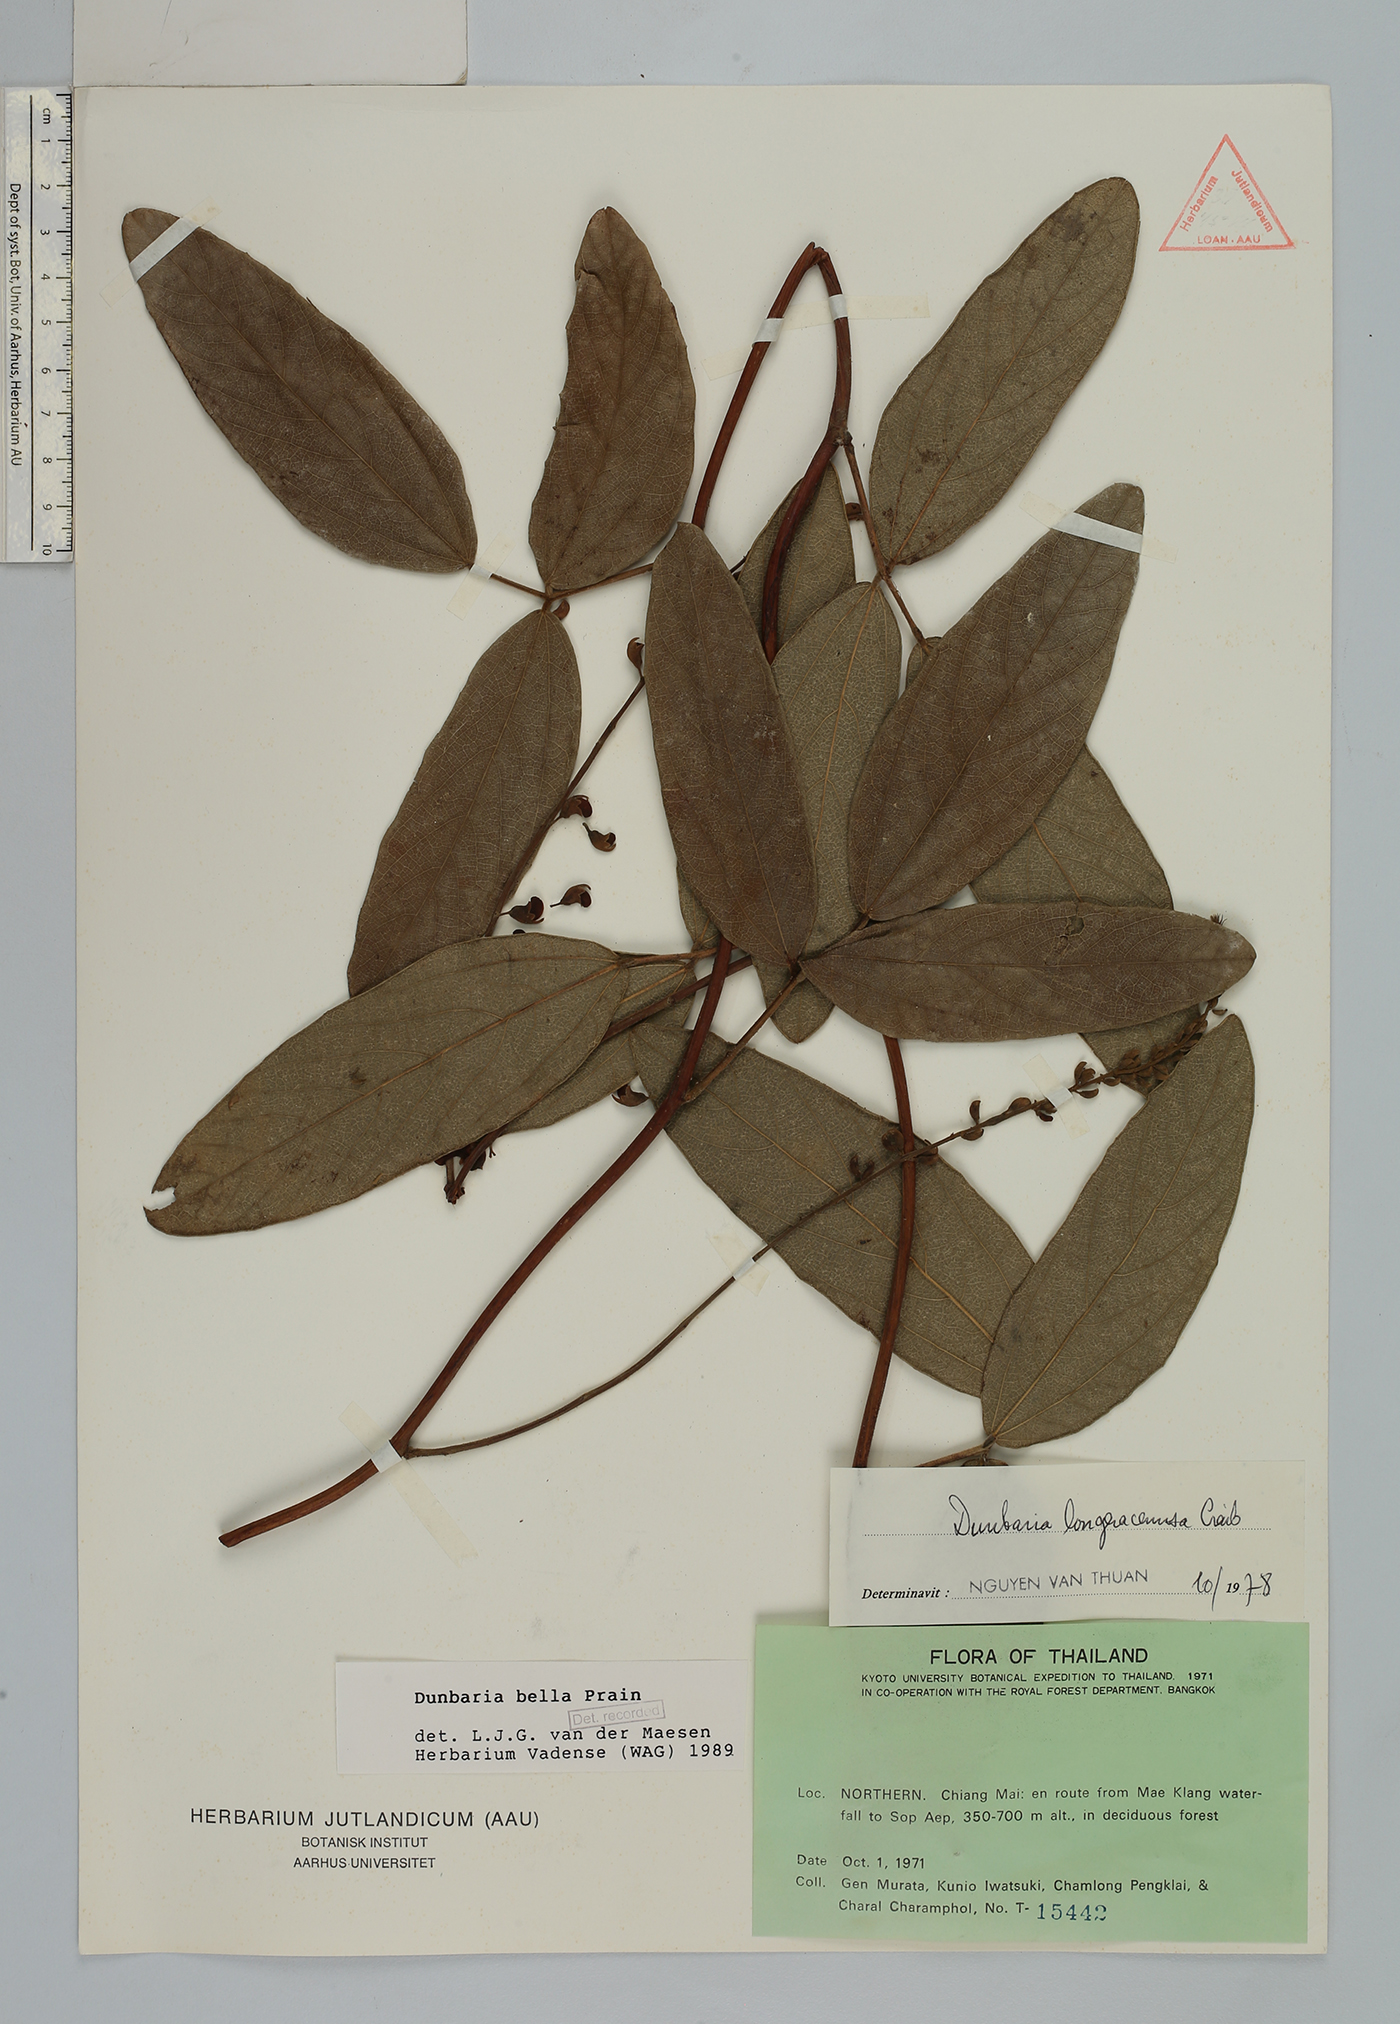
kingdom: Plantae
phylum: Tracheophyta
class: Magnoliopsida
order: Fabales
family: Fabaceae
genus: Dunbaria
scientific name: Dunbaria bella
